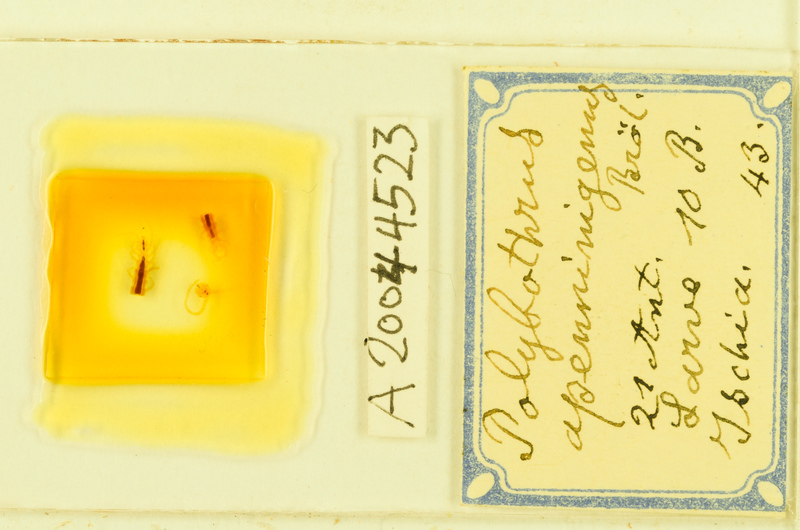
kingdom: Animalia
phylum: Arthropoda
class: Chilopoda
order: Lithobiomorpha
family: Lithobiidae
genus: Polybothrus
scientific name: Polybothrus
